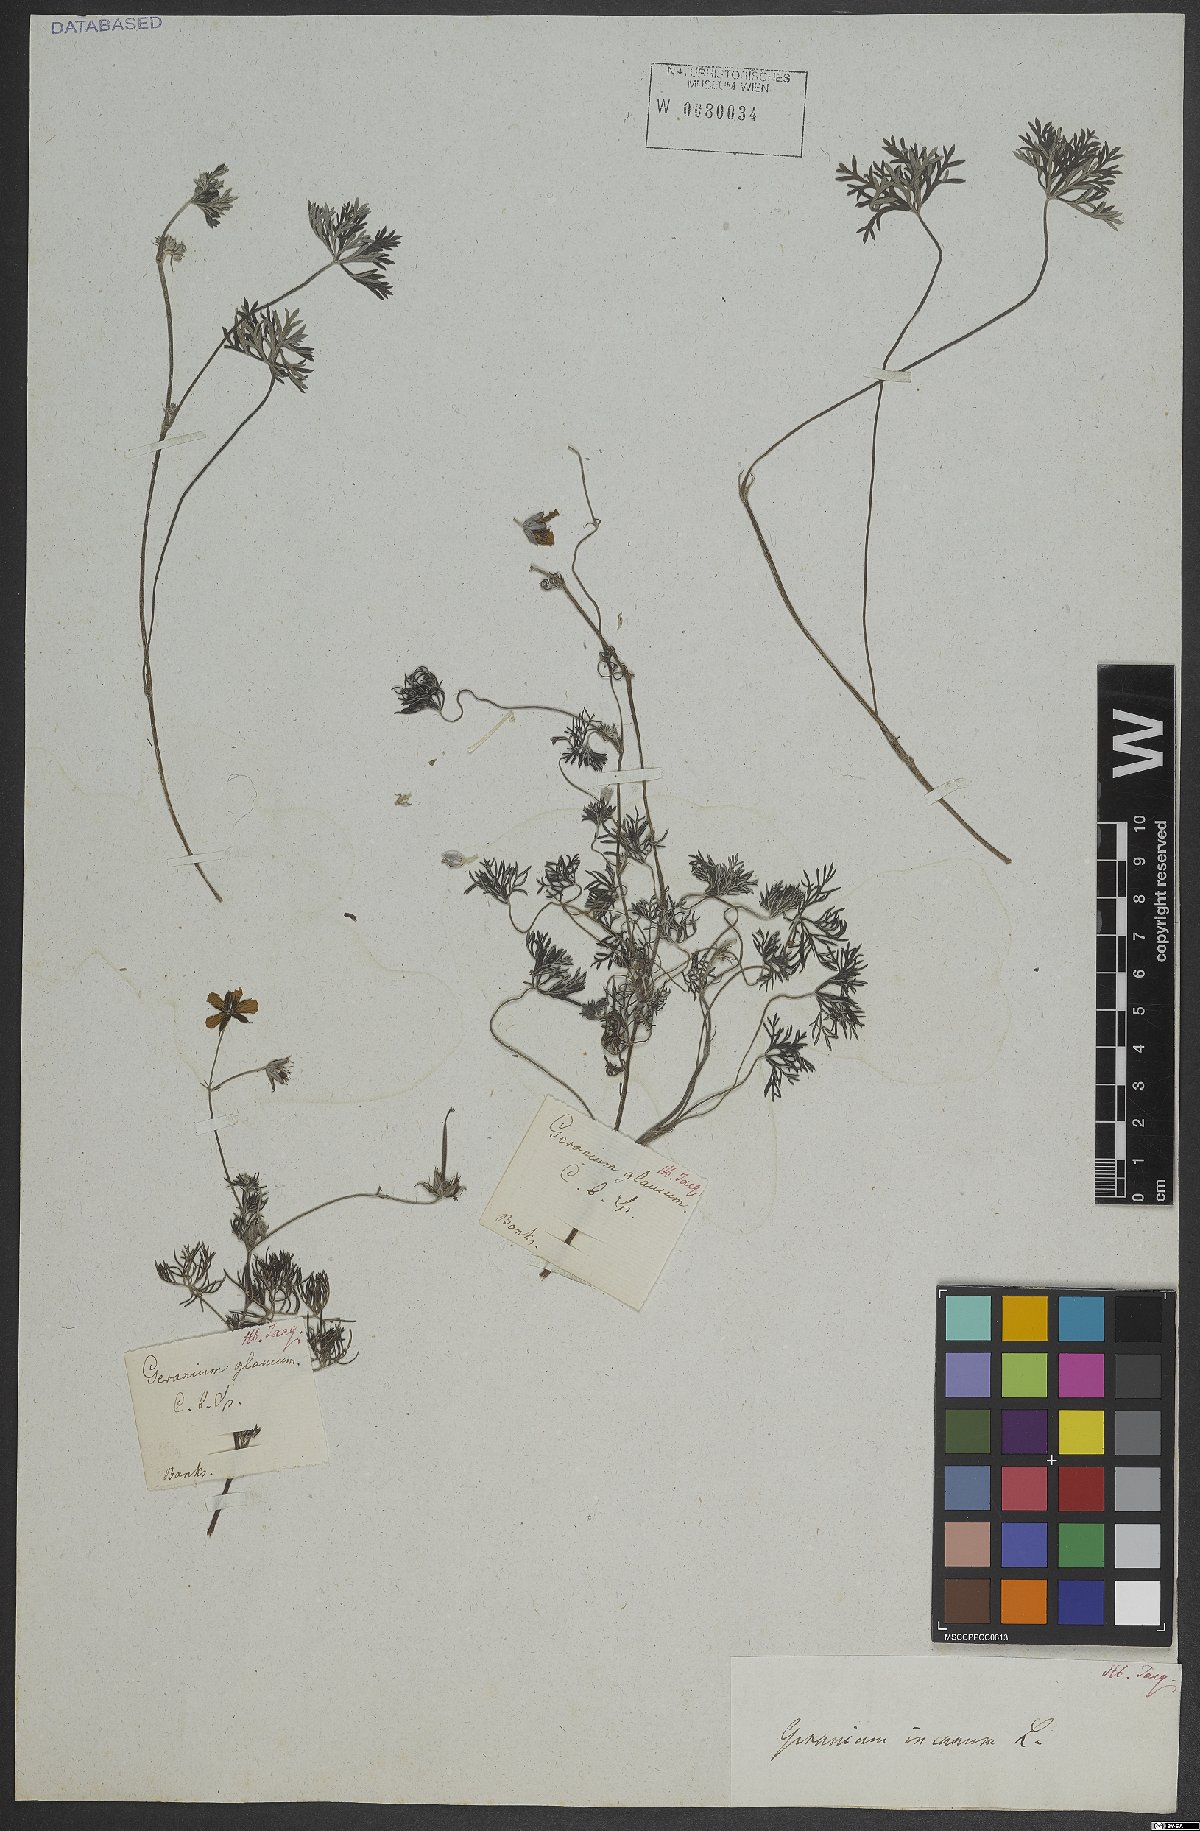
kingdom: Plantae
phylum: Tracheophyta
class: Magnoliopsida
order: Geraniales
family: Geraniaceae
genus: Geranium
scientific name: Geranium incanum
